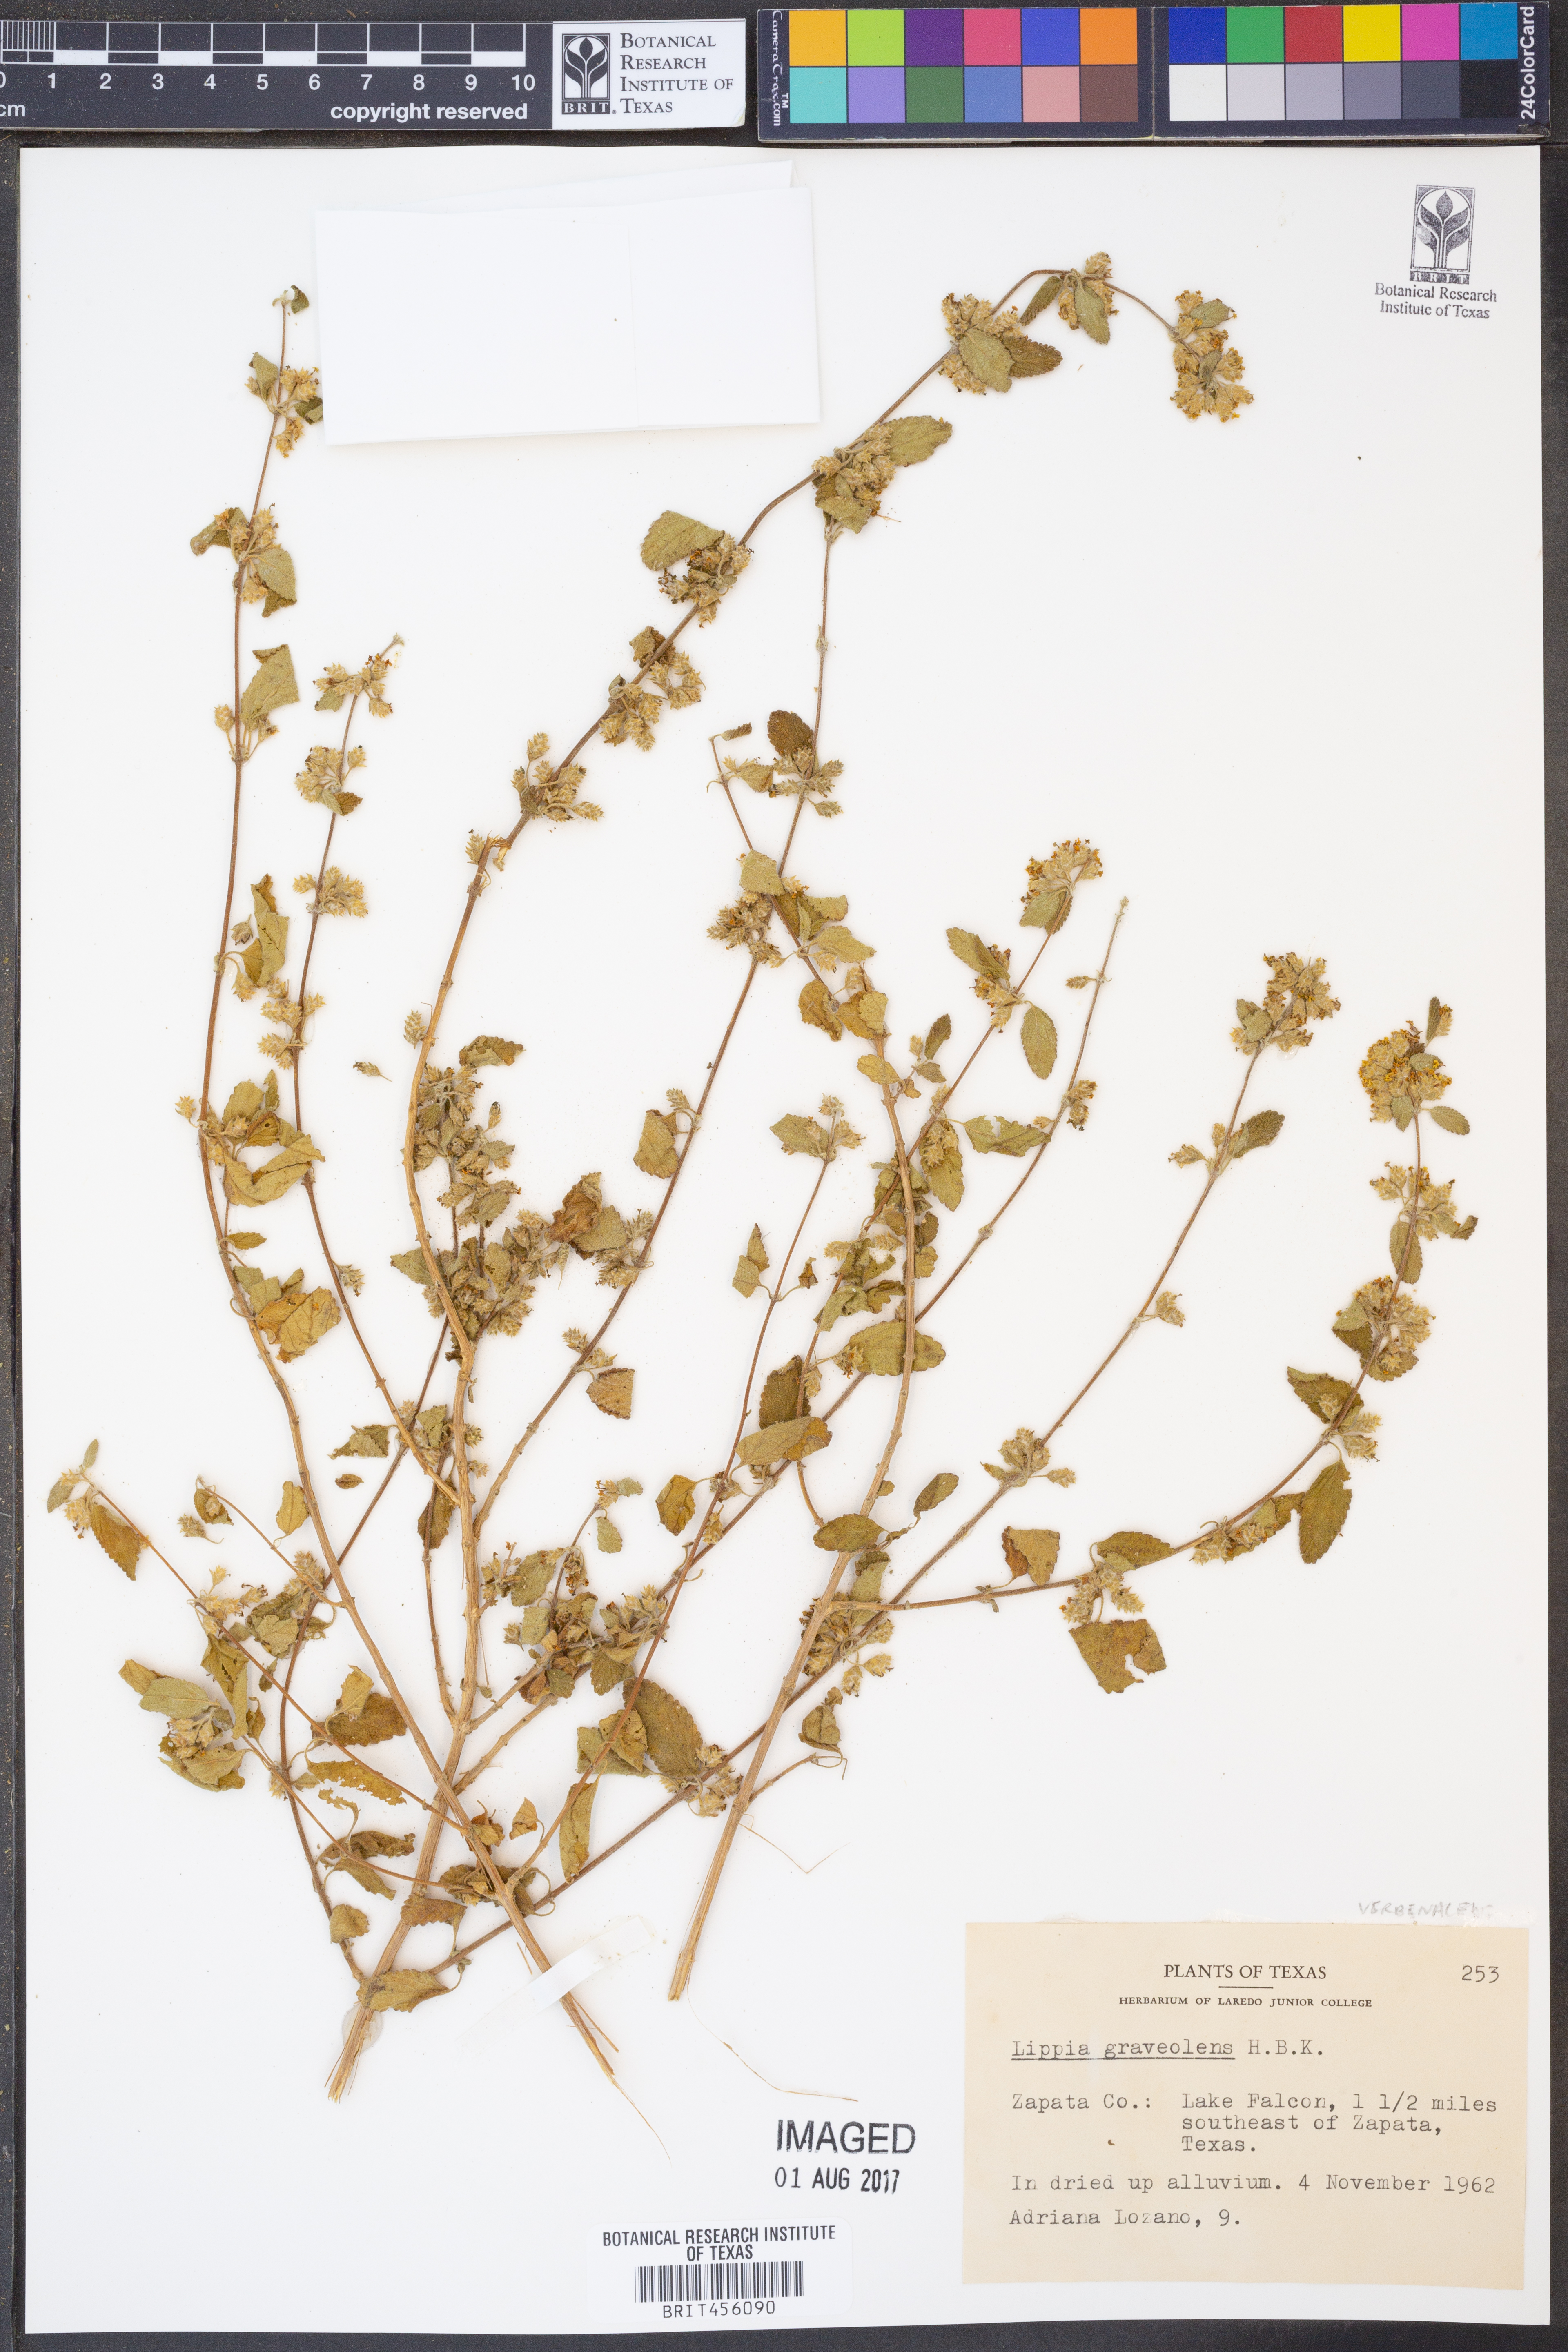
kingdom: Plantae
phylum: Tracheophyta
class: Magnoliopsida
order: Lamiales
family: Verbenaceae
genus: Lippia
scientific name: Lippia origanoides
